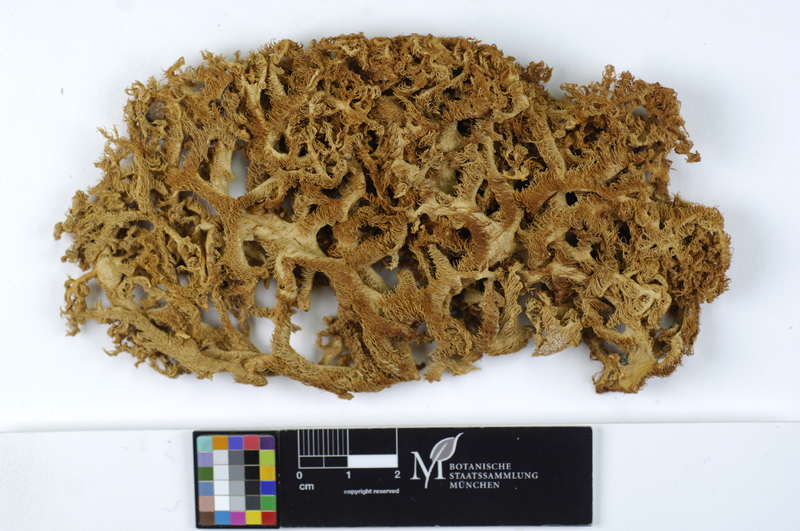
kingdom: Fungi
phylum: Basidiomycota
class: Agaricomycetes
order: Russulales
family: Hericiaceae
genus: Hericium
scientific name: Hericium coralloides
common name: Coral tooth
